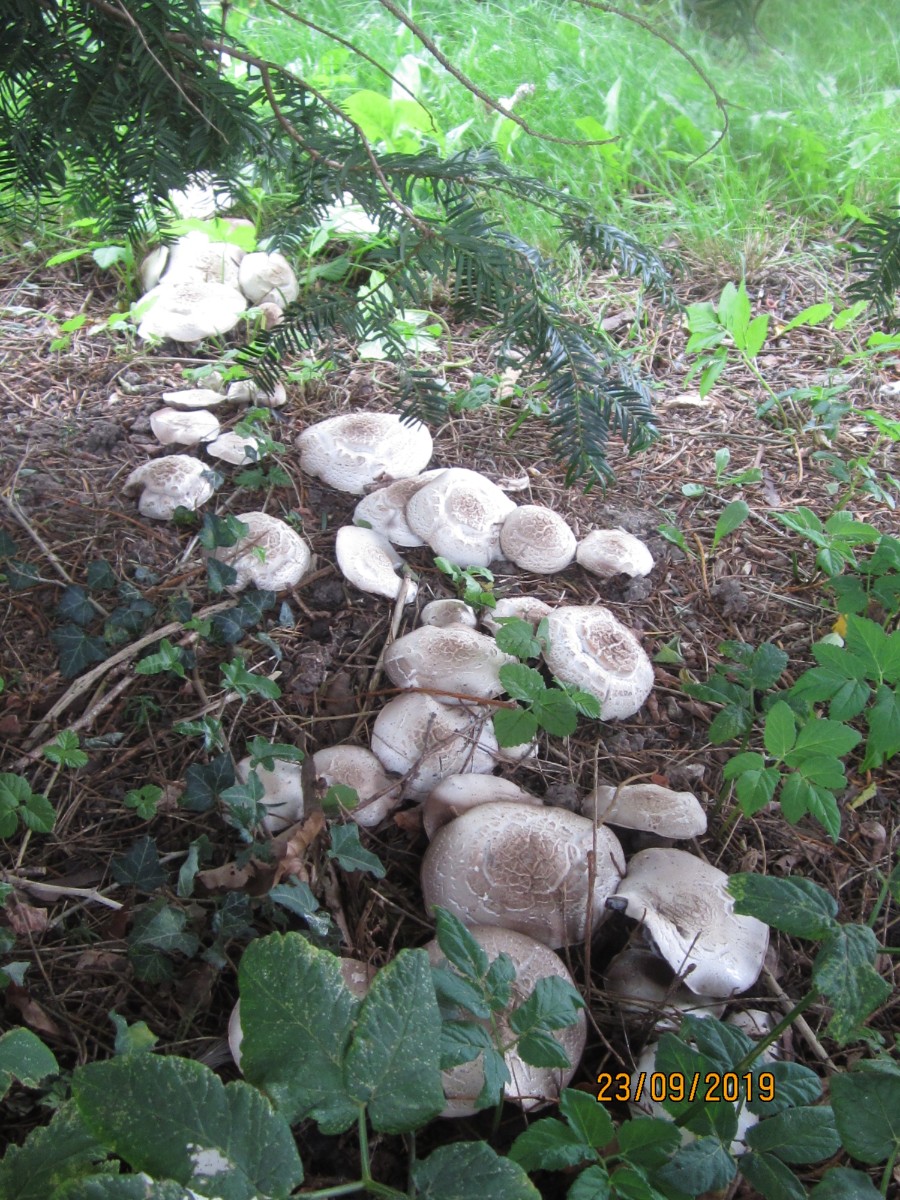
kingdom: Fungi
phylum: Basidiomycota
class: Agaricomycetes
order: Agaricales
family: Agaricaceae
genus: Agaricus
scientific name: Agaricus xanthodermus
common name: karbol-champignon
